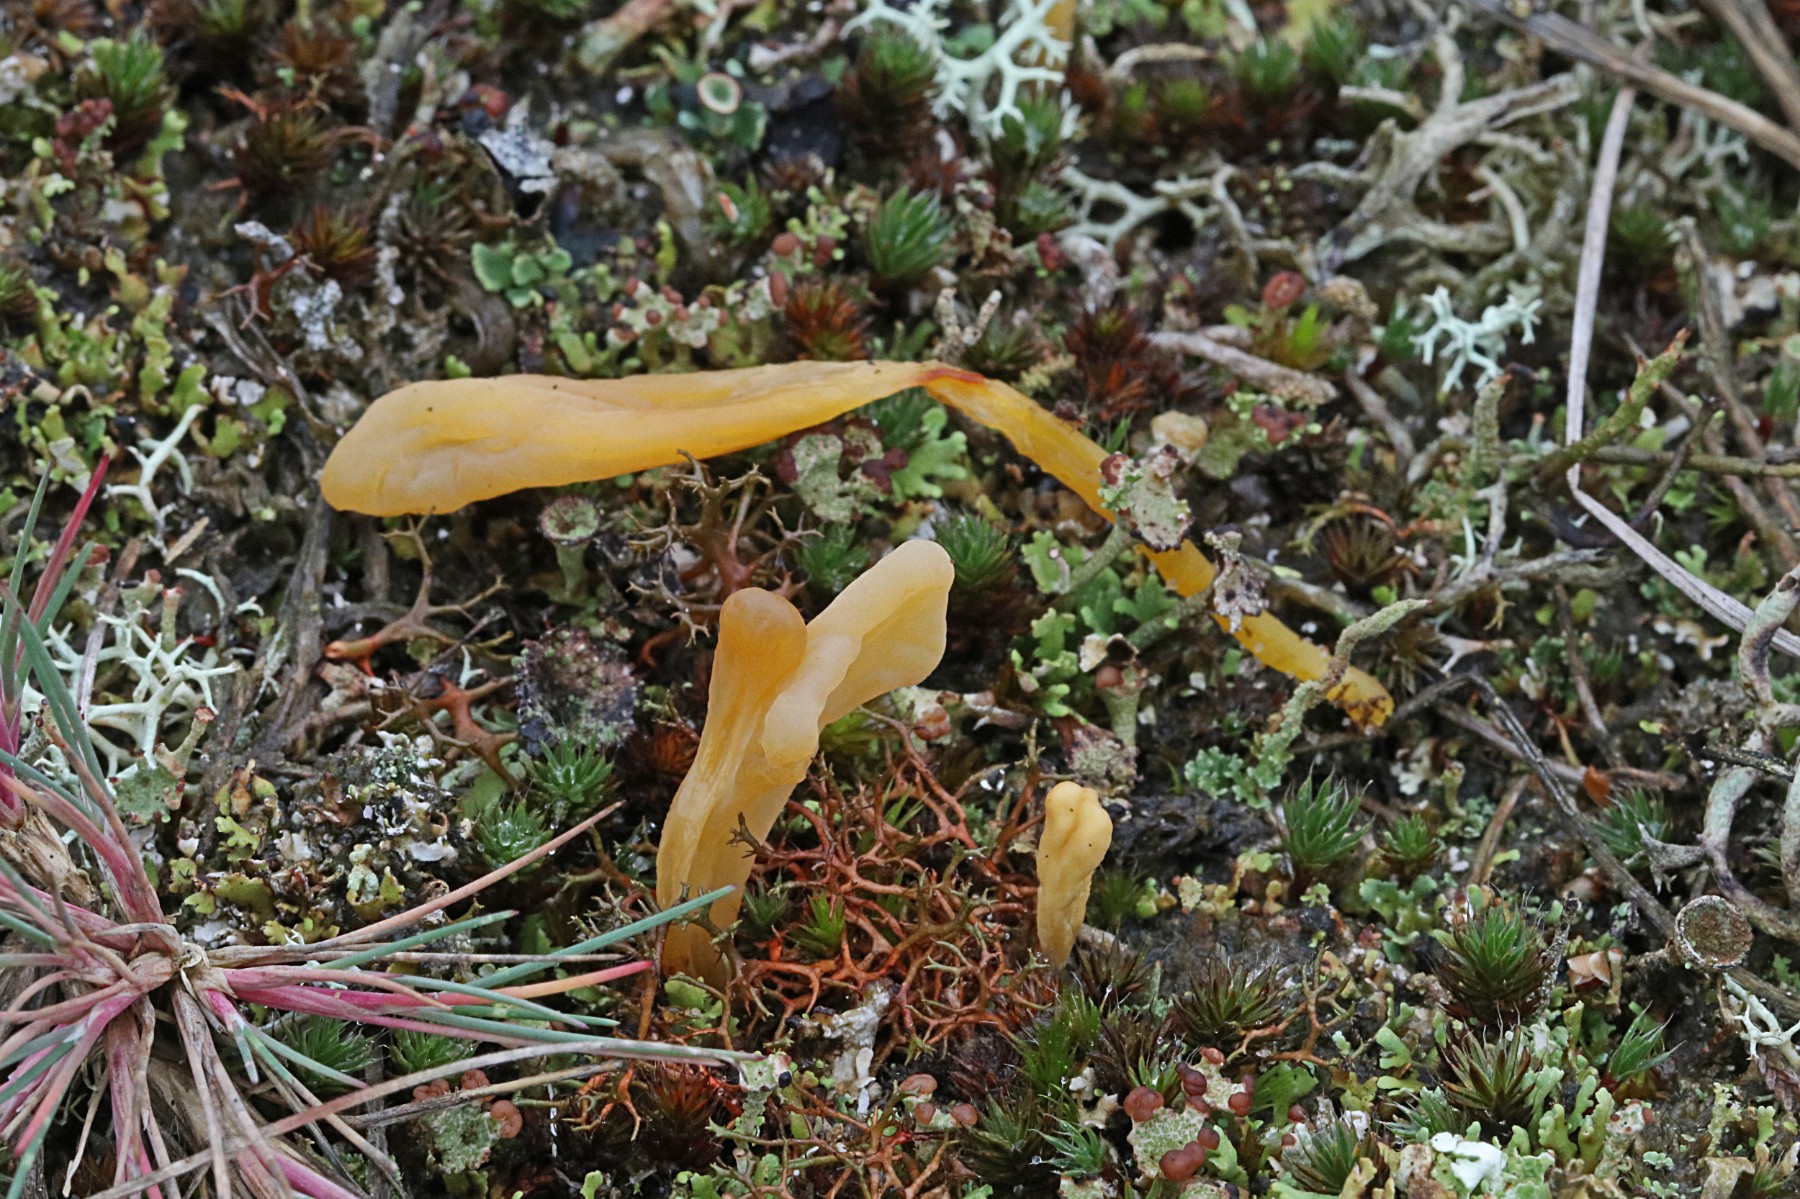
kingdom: Fungi
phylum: Basidiomycota
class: Agaricomycetes
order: Agaricales
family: Clavariaceae
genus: Clavaria
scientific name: Clavaria argillacea
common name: lerfarvet køllesvamp
